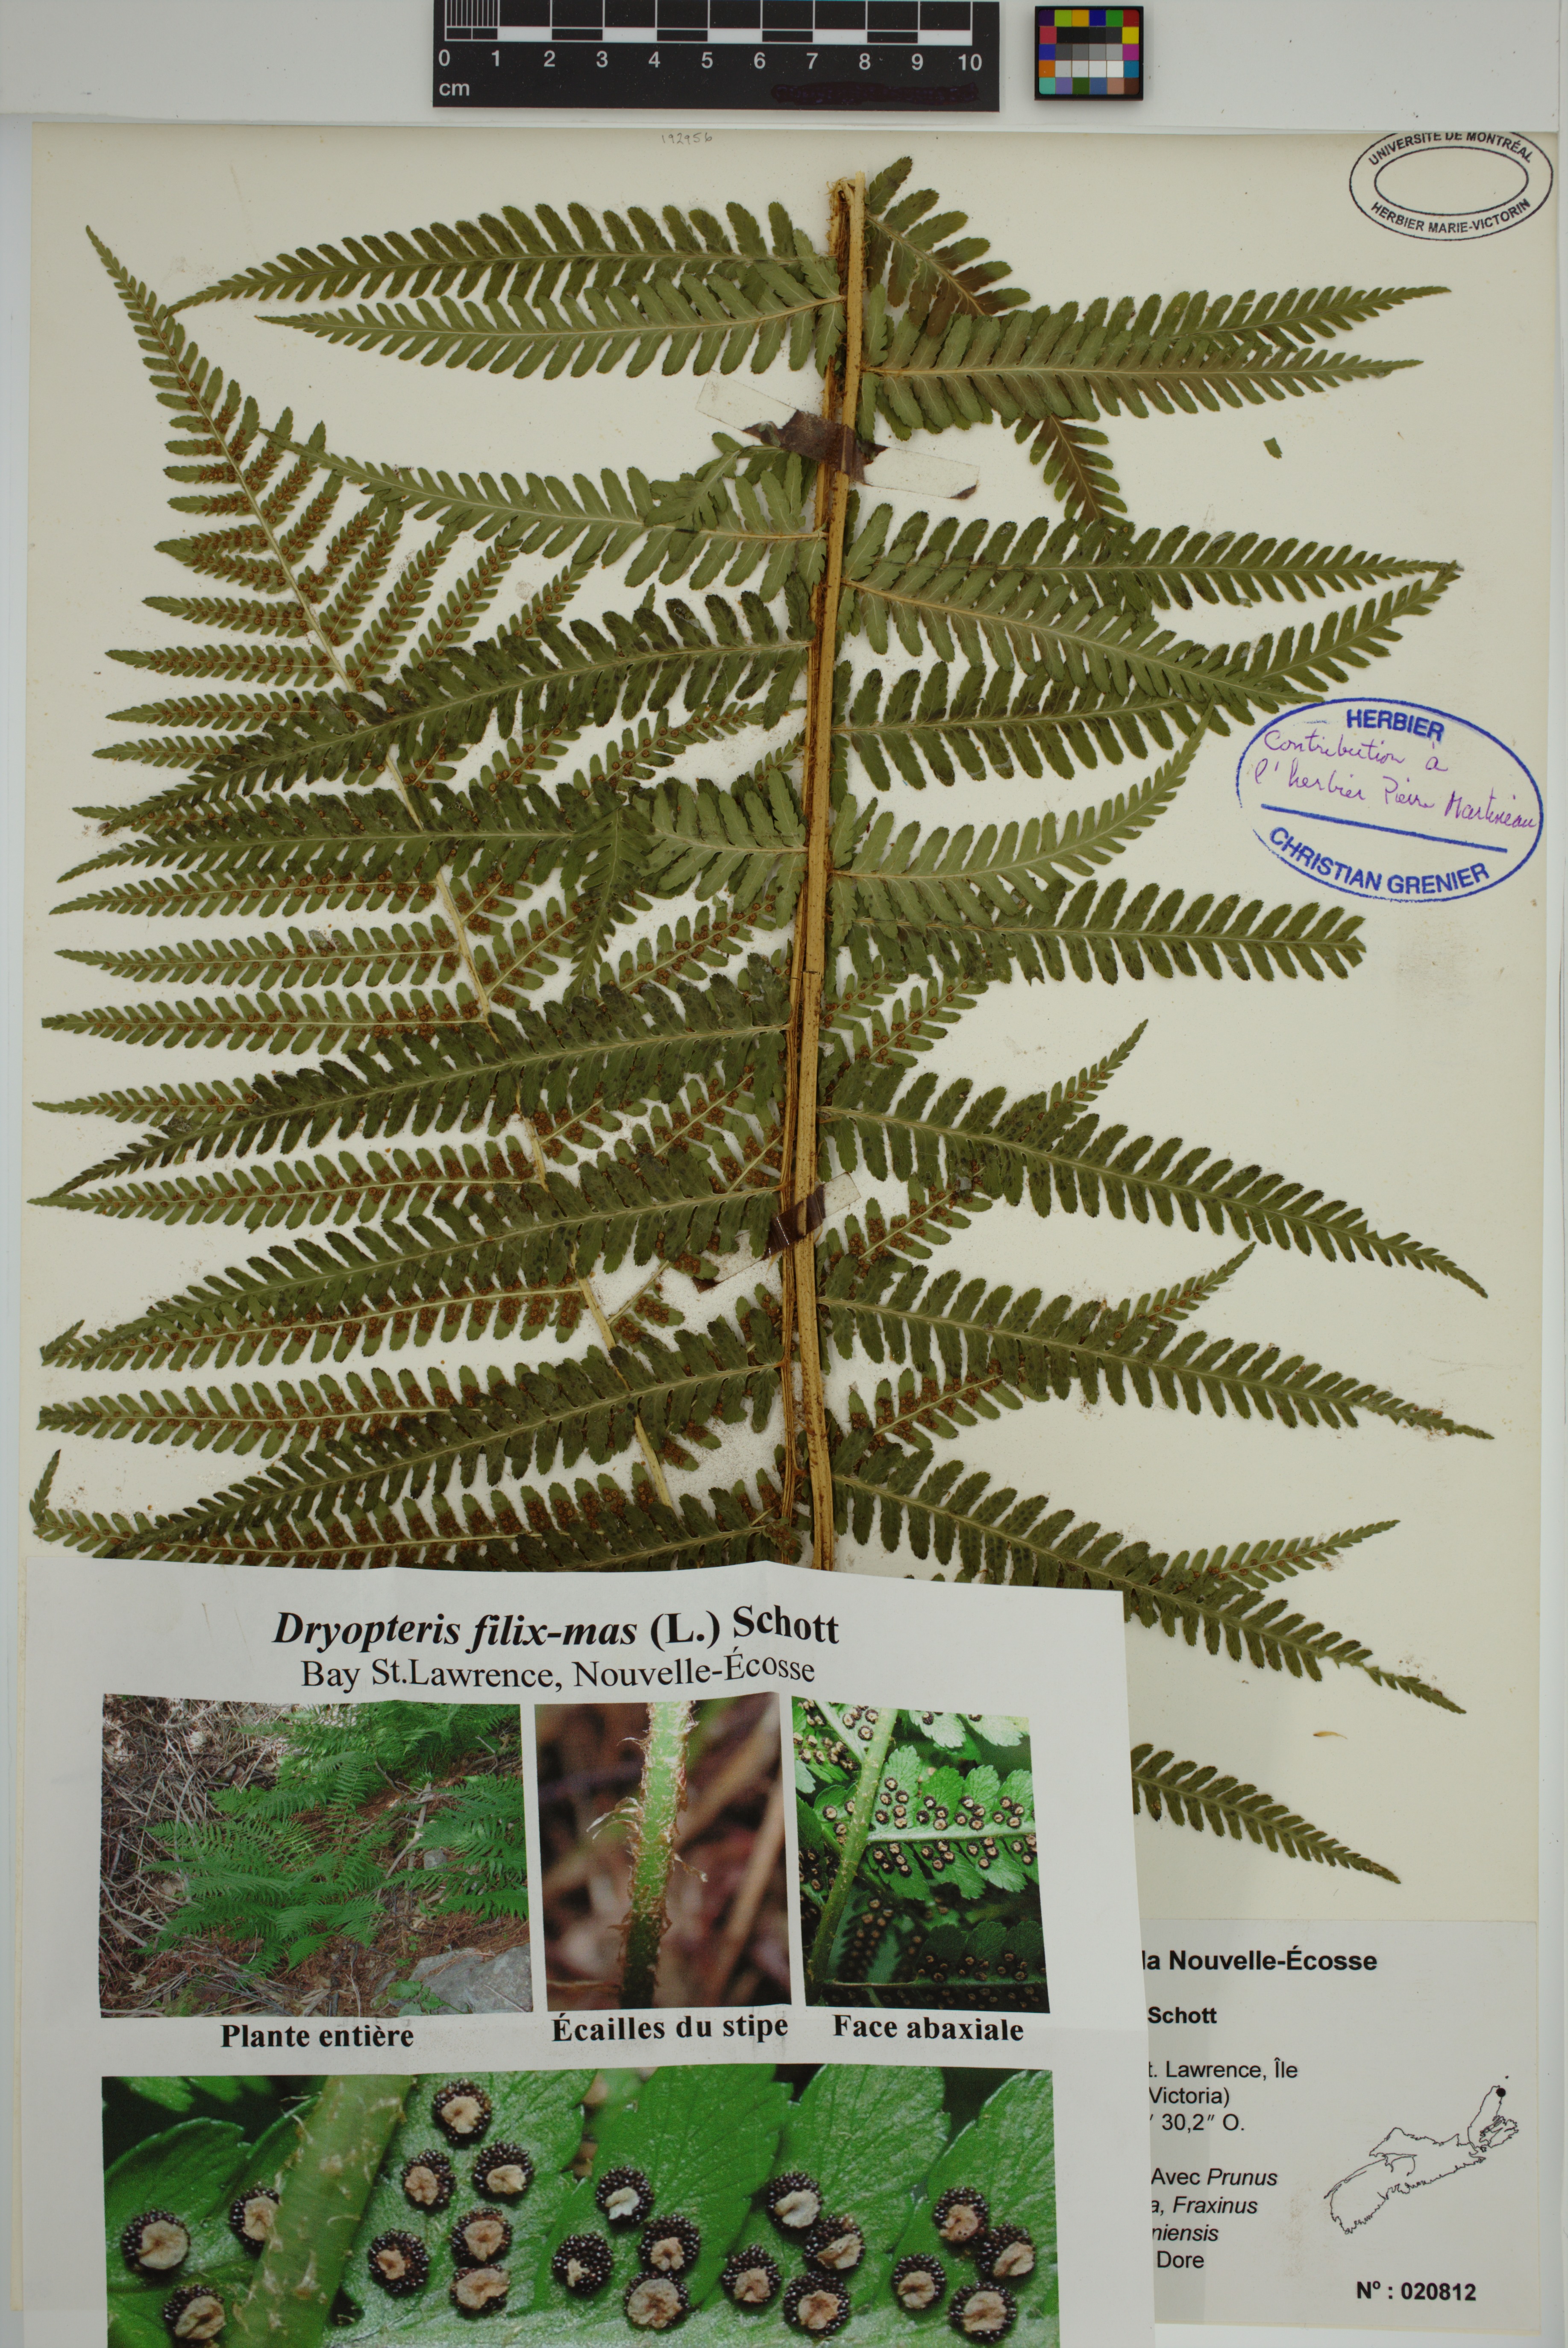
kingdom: Plantae
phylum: Tracheophyta
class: Polypodiopsida
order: Polypodiales
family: Dryopteridaceae
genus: Dryopteris
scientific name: Dryopteris filix-mas
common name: Male fern
